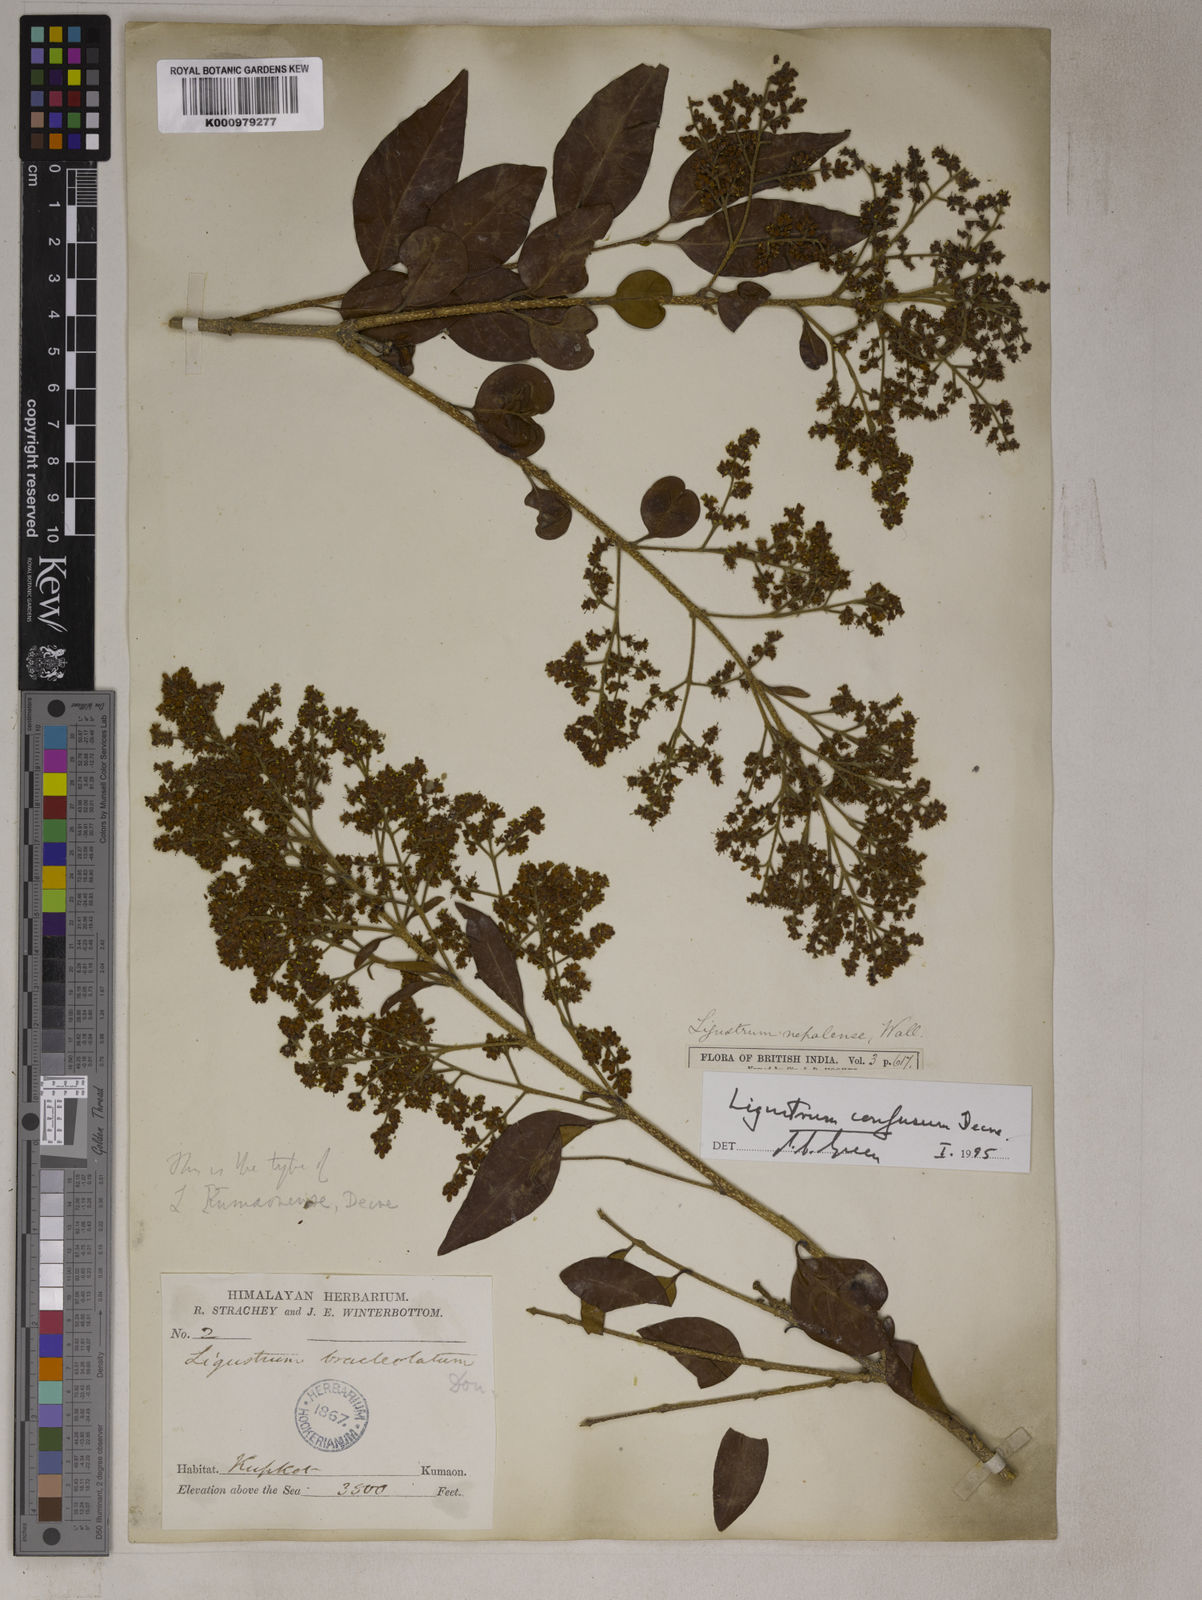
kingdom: Plantae
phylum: Tracheophyta
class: Magnoliopsida
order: Lamiales
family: Oleaceae
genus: Ligustrum
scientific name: Ligustrum confusum
